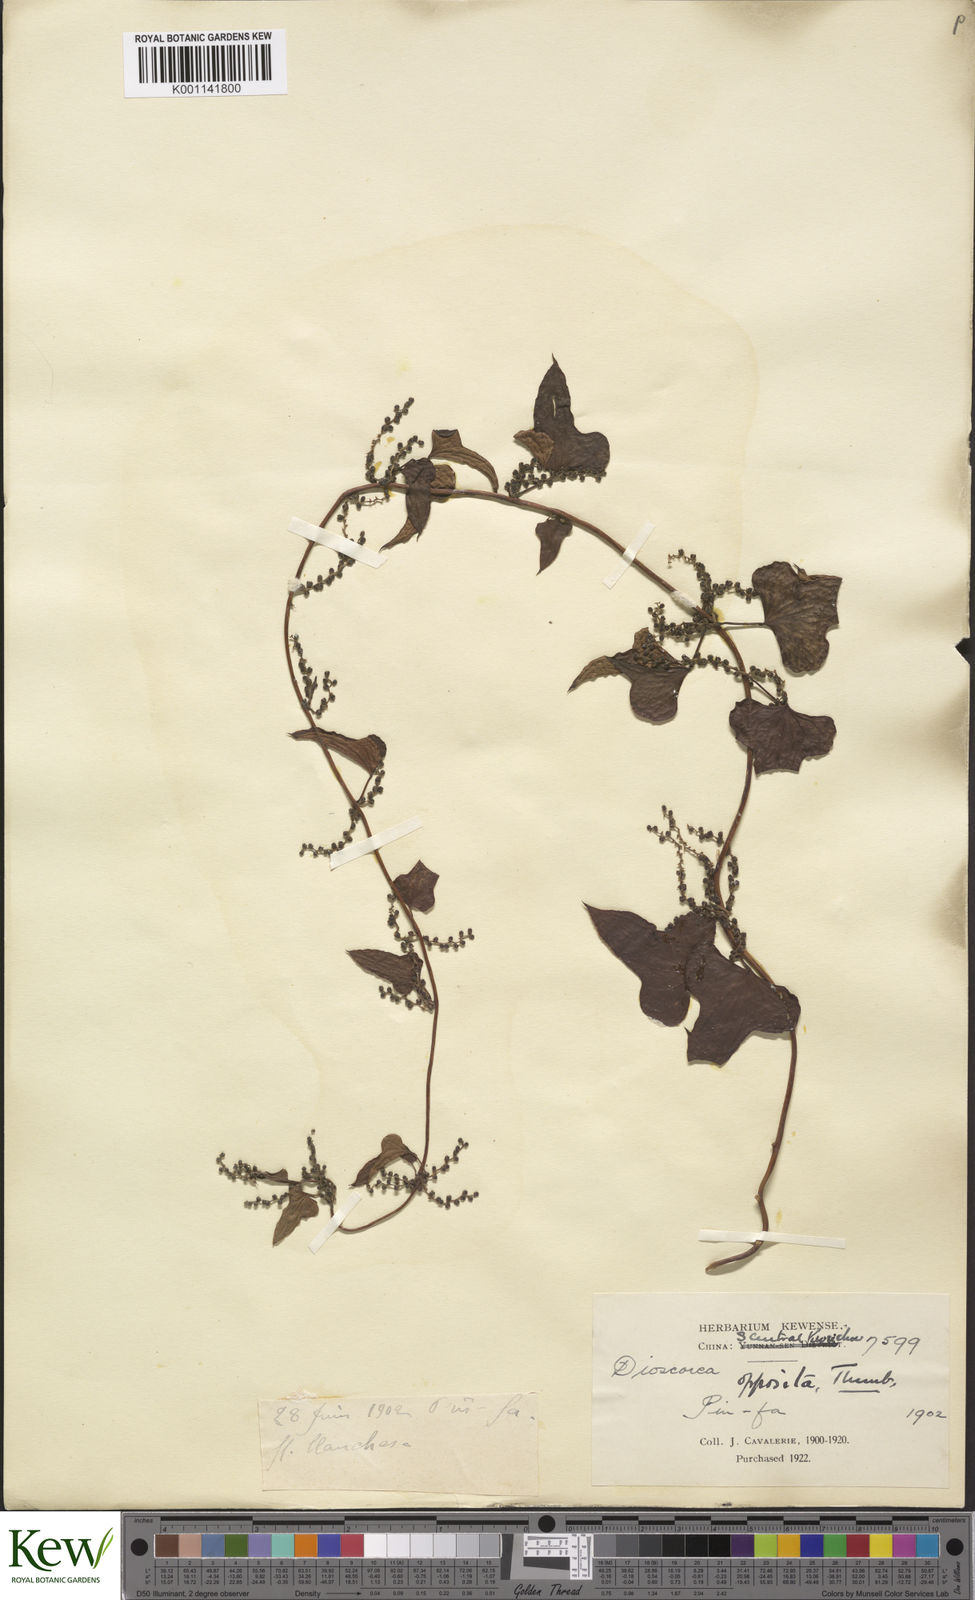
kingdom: Plantae
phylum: Tracheophyta
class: Liliopsida
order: Dioscoreales
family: Dioscoreaceae
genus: Dioscorea
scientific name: Dioscorea oppositifolia
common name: Chinese yam
